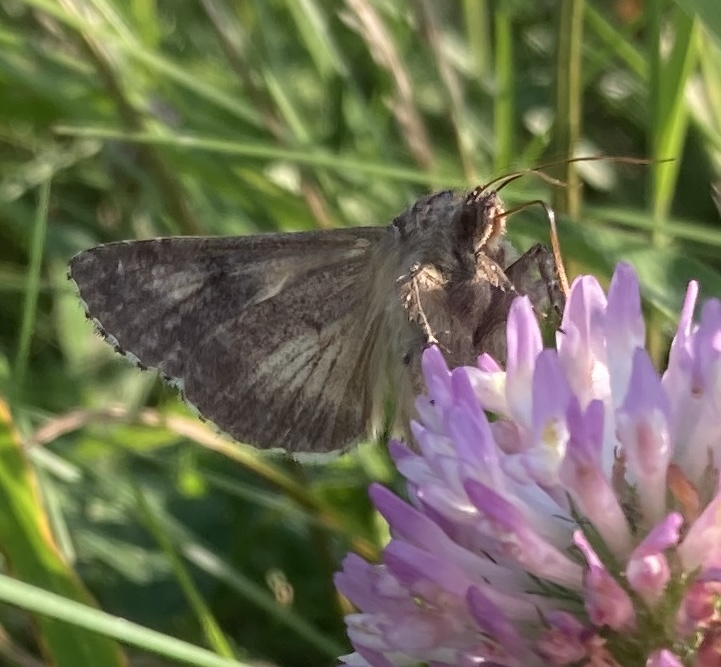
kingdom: Animalia
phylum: Arthropoda
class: Insecta
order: Lepidoptera
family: Noctuidae
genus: Autographa
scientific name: Autographa gamma
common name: Gammaugle
